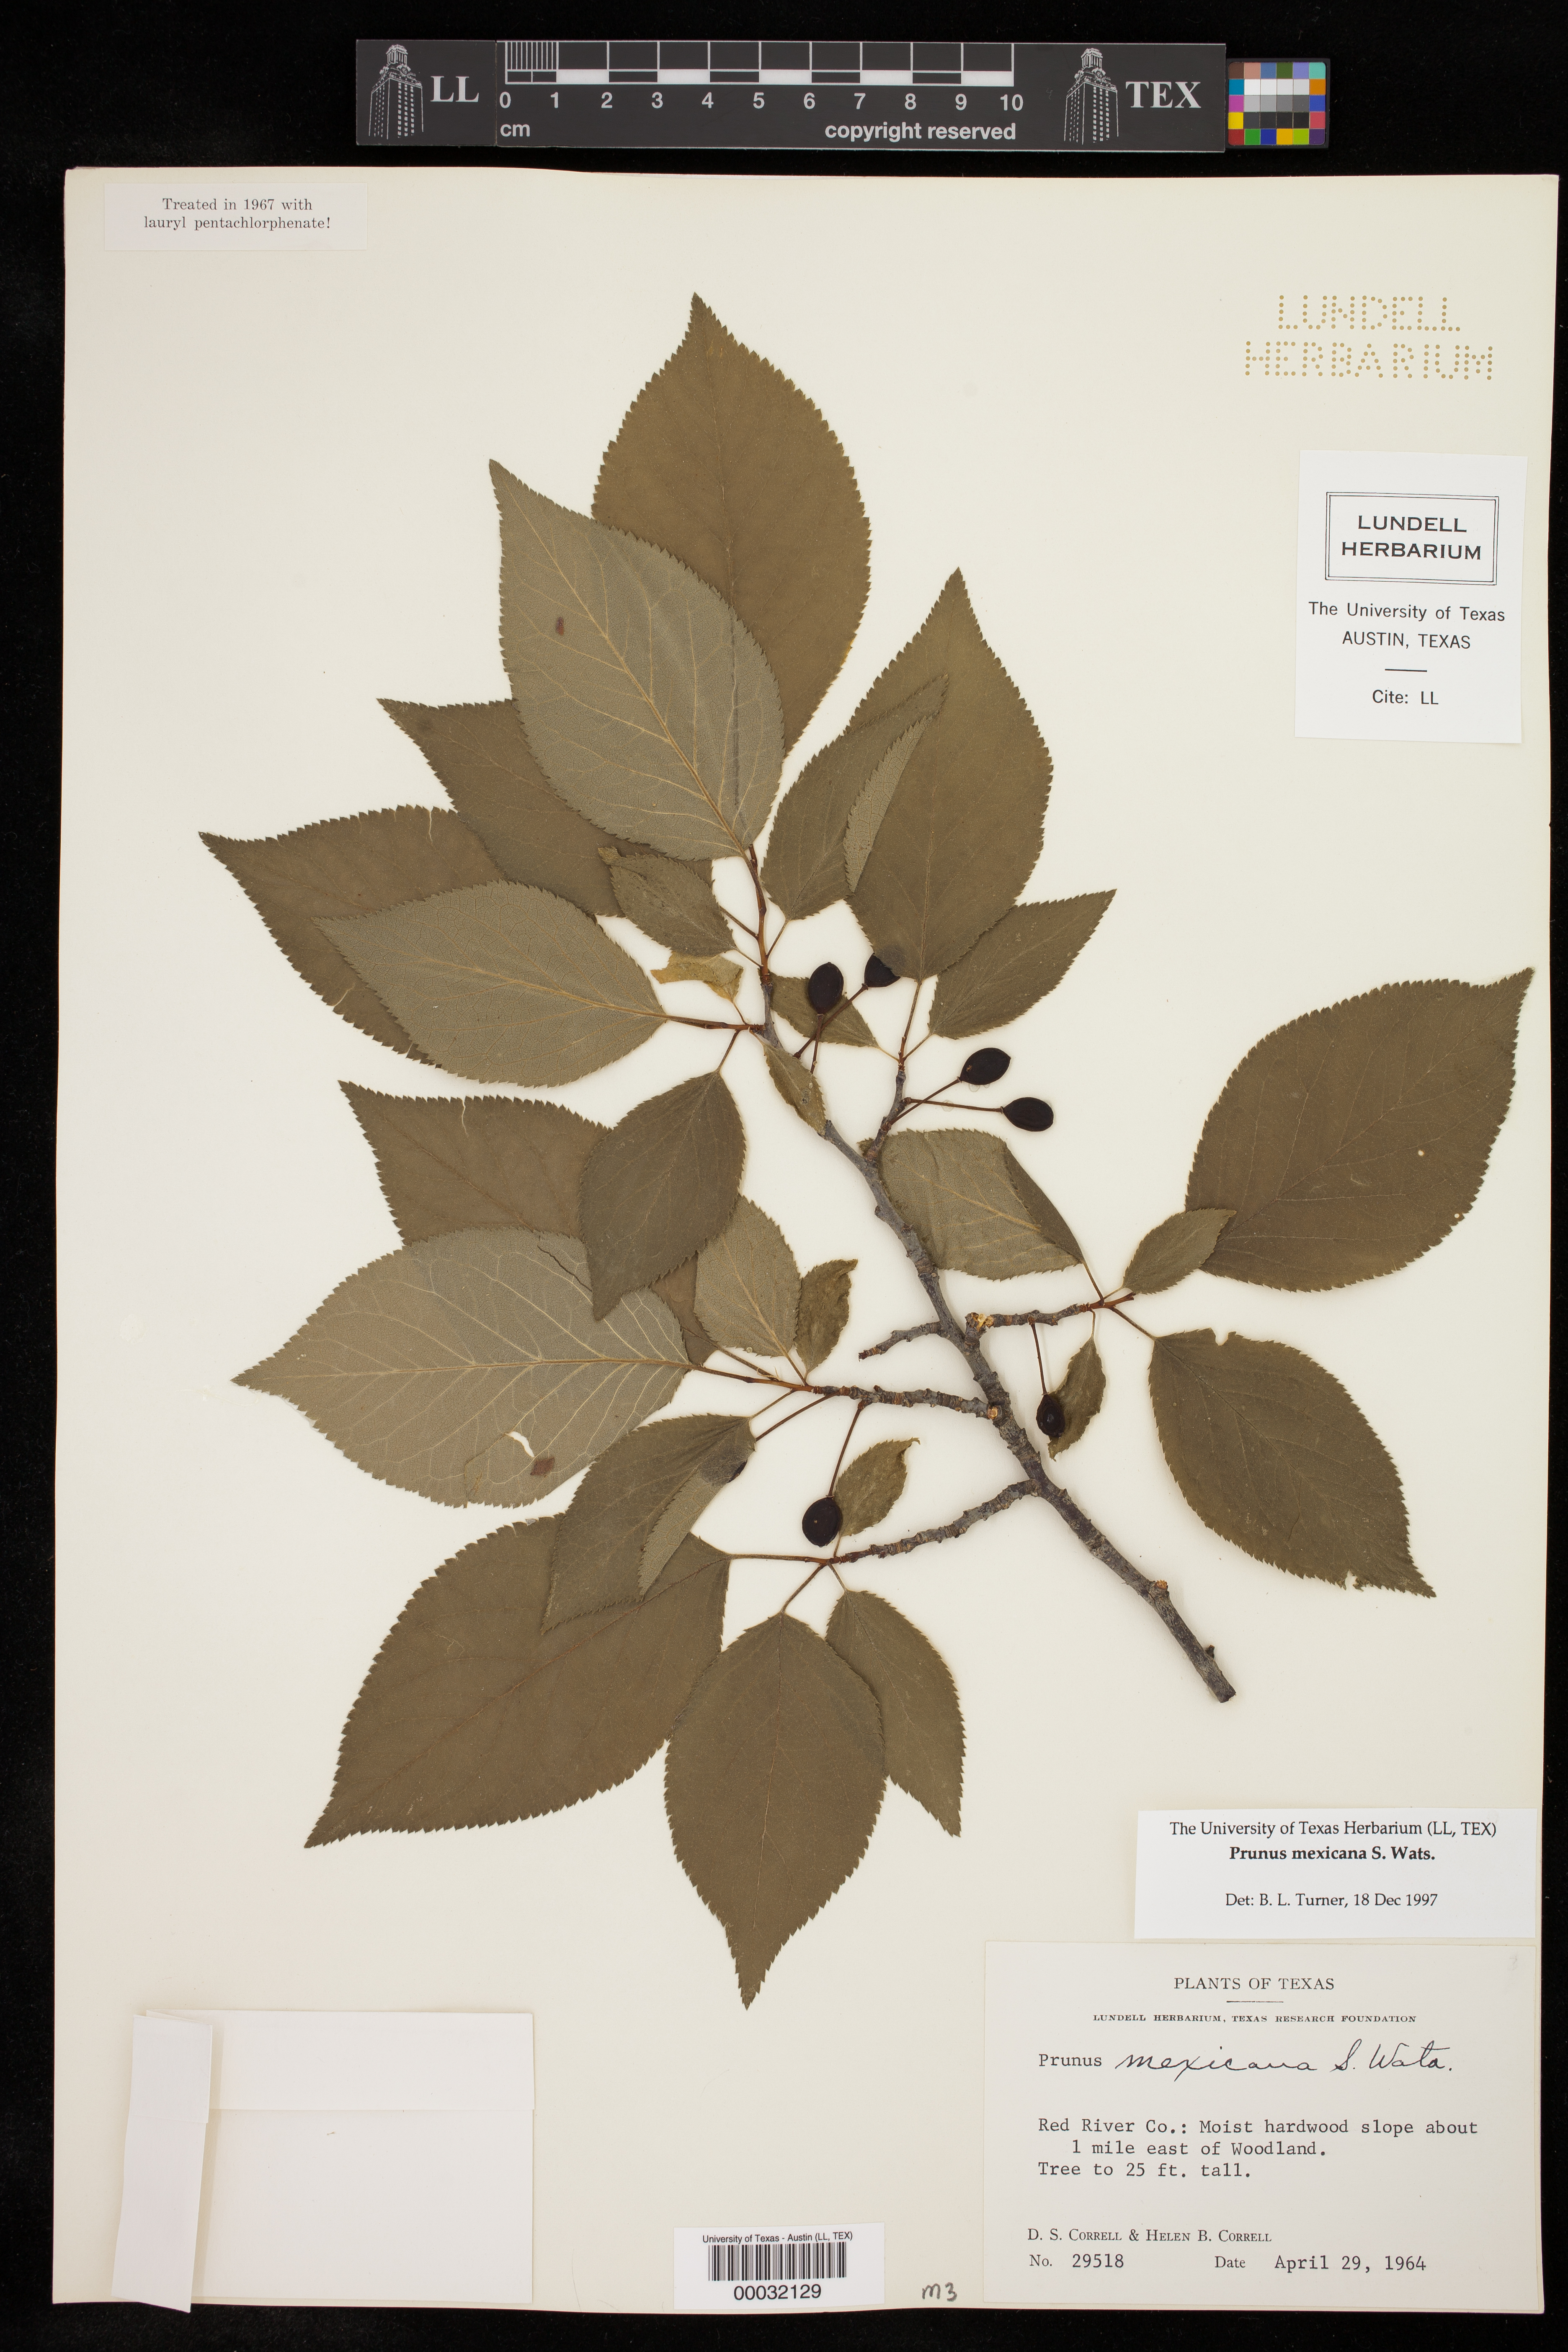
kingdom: Plantae
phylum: Tracheophyta
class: Magnoliopsida
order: Rosales
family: Rosaceae
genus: Prunus
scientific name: Prunus mexicana
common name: Mexican plum
